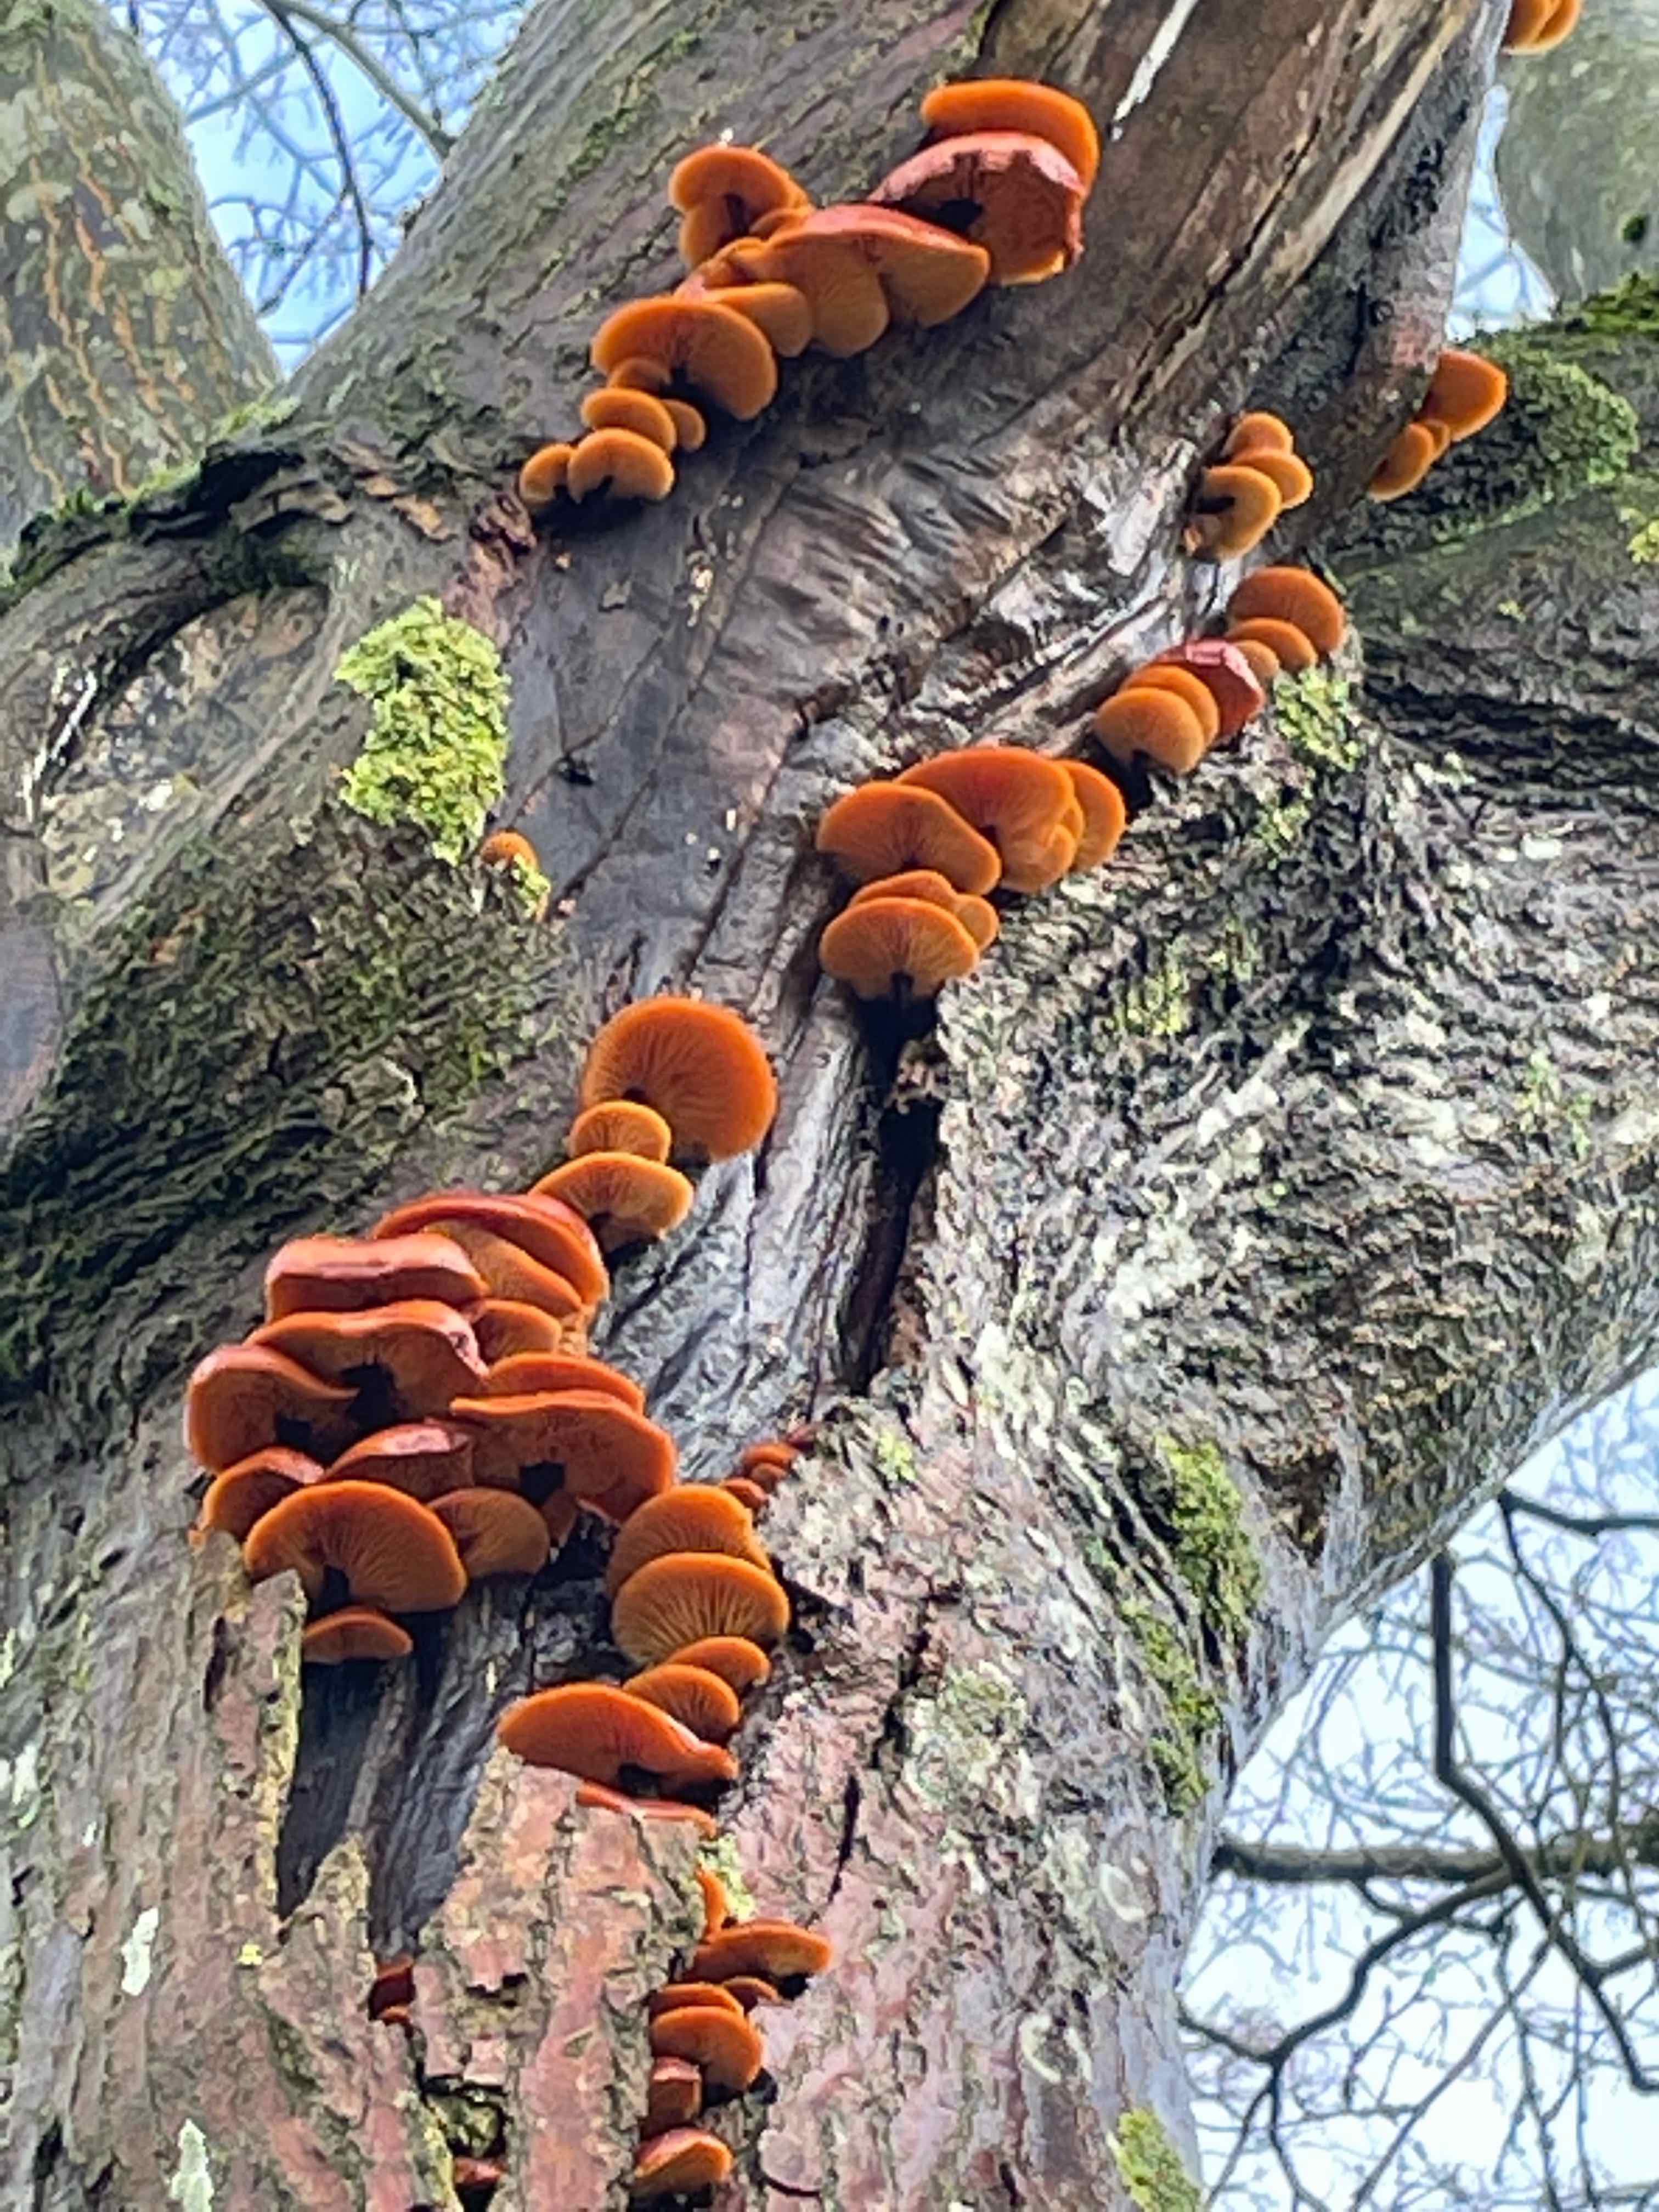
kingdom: Fungi
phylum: Basidiomycota
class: Agaricomycetes
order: Agaricales
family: Physalacriaceae
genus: Flammulina
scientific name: Flammulina velutipes
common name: gul fløjlsfod
